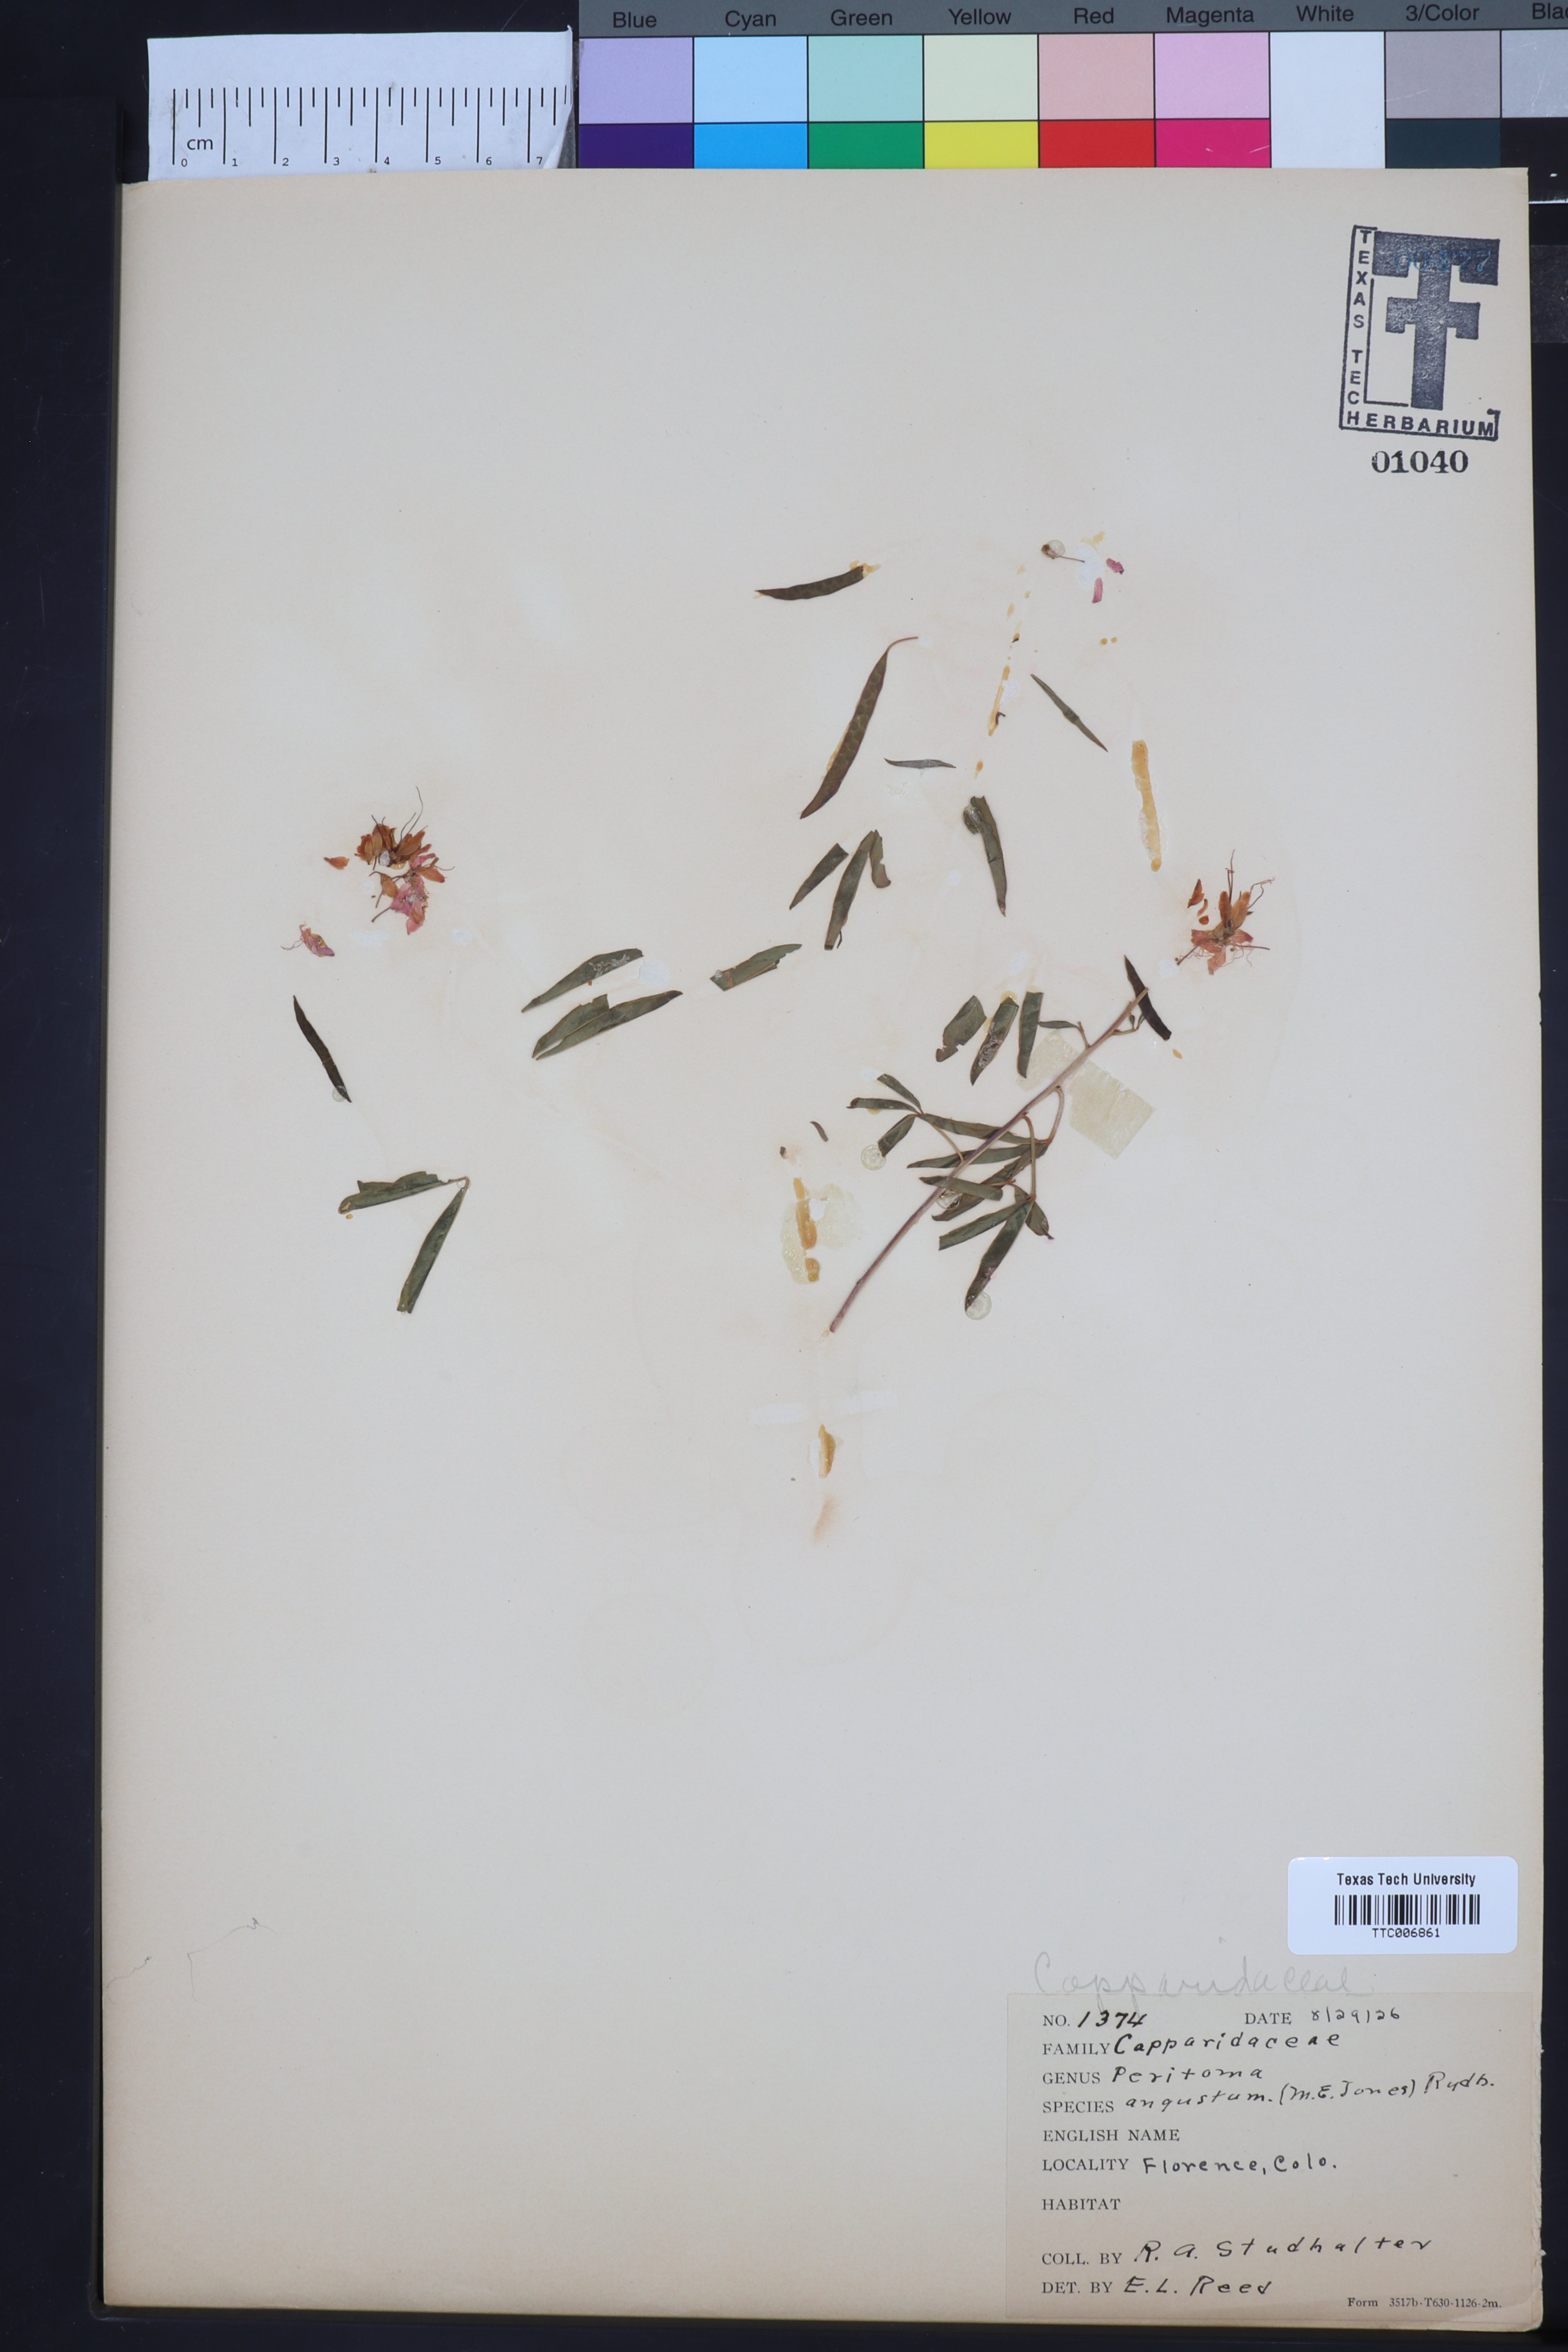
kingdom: Plantae
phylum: Tracheophyta
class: Magnoliopsida
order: Brassicales
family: Cleomaceae
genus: Cleomella
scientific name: Cleomella serrulata
